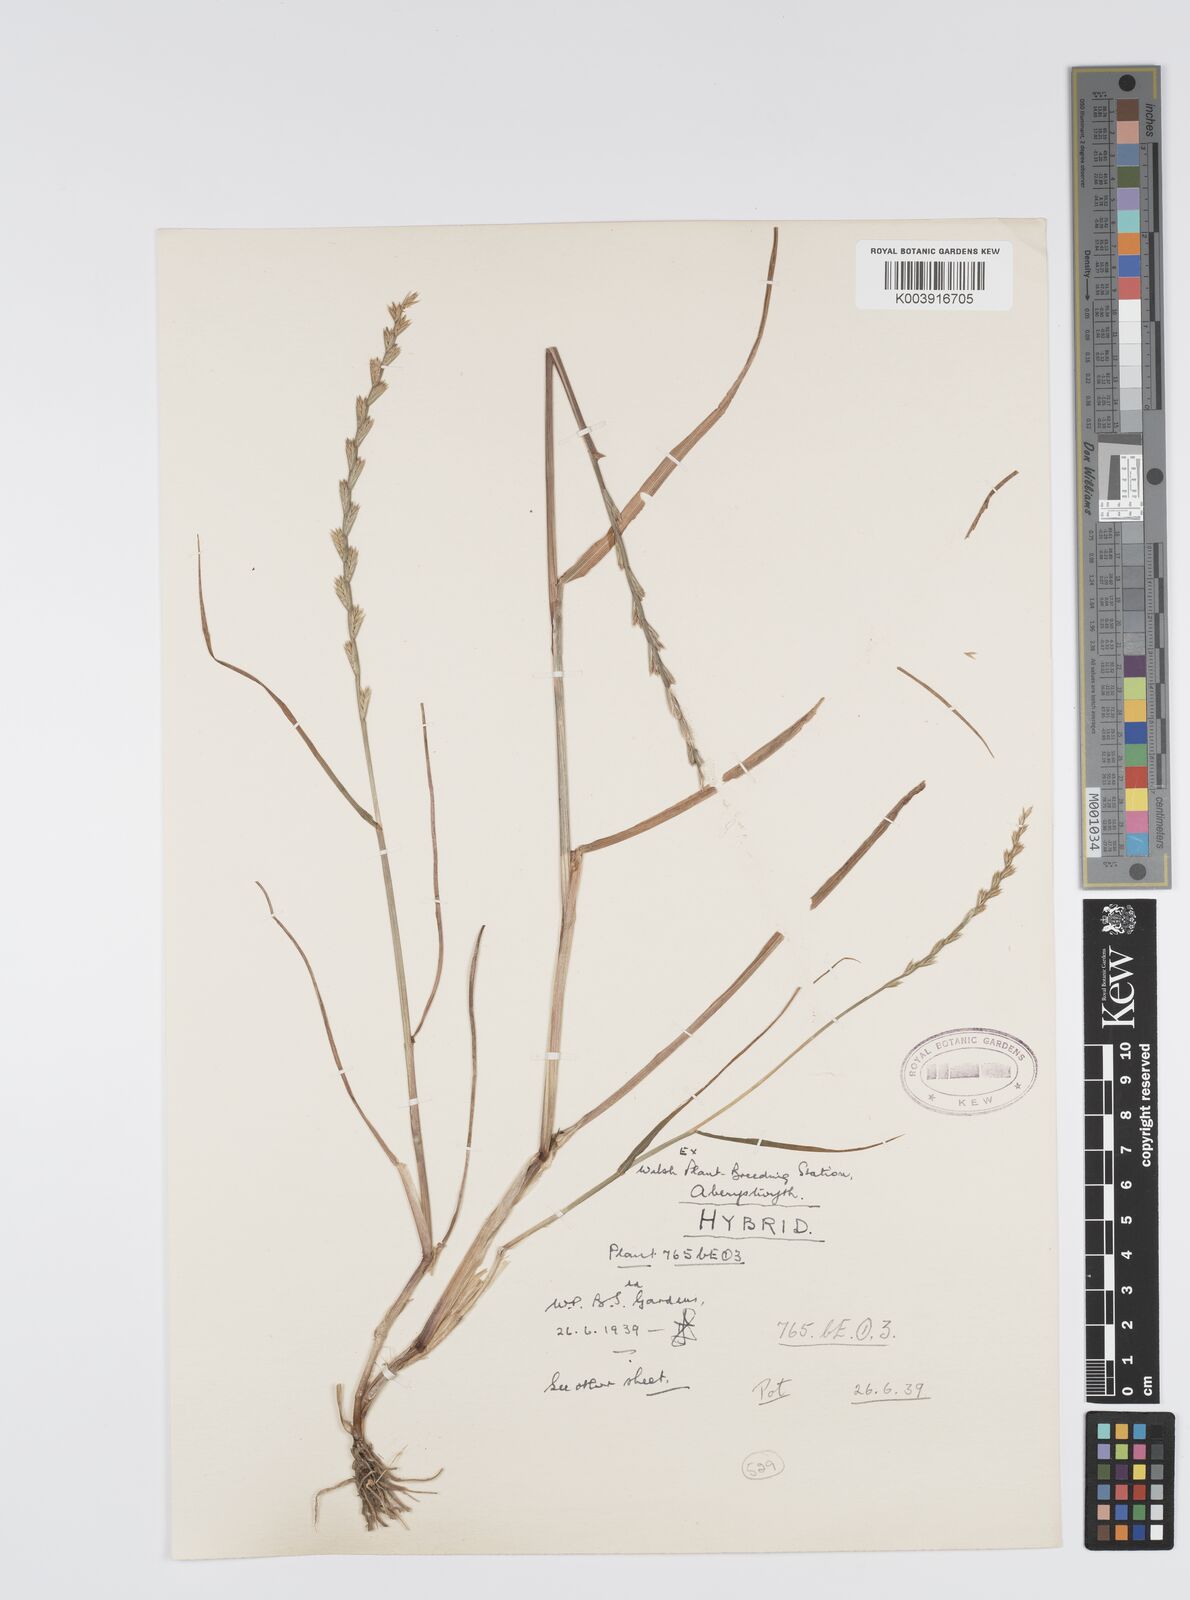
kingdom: Plantae
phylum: Tracheophyta
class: Liliopsida
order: Poales
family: Poaceae
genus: Lolium
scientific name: Lolium perenne
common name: Perennial ryegrass
